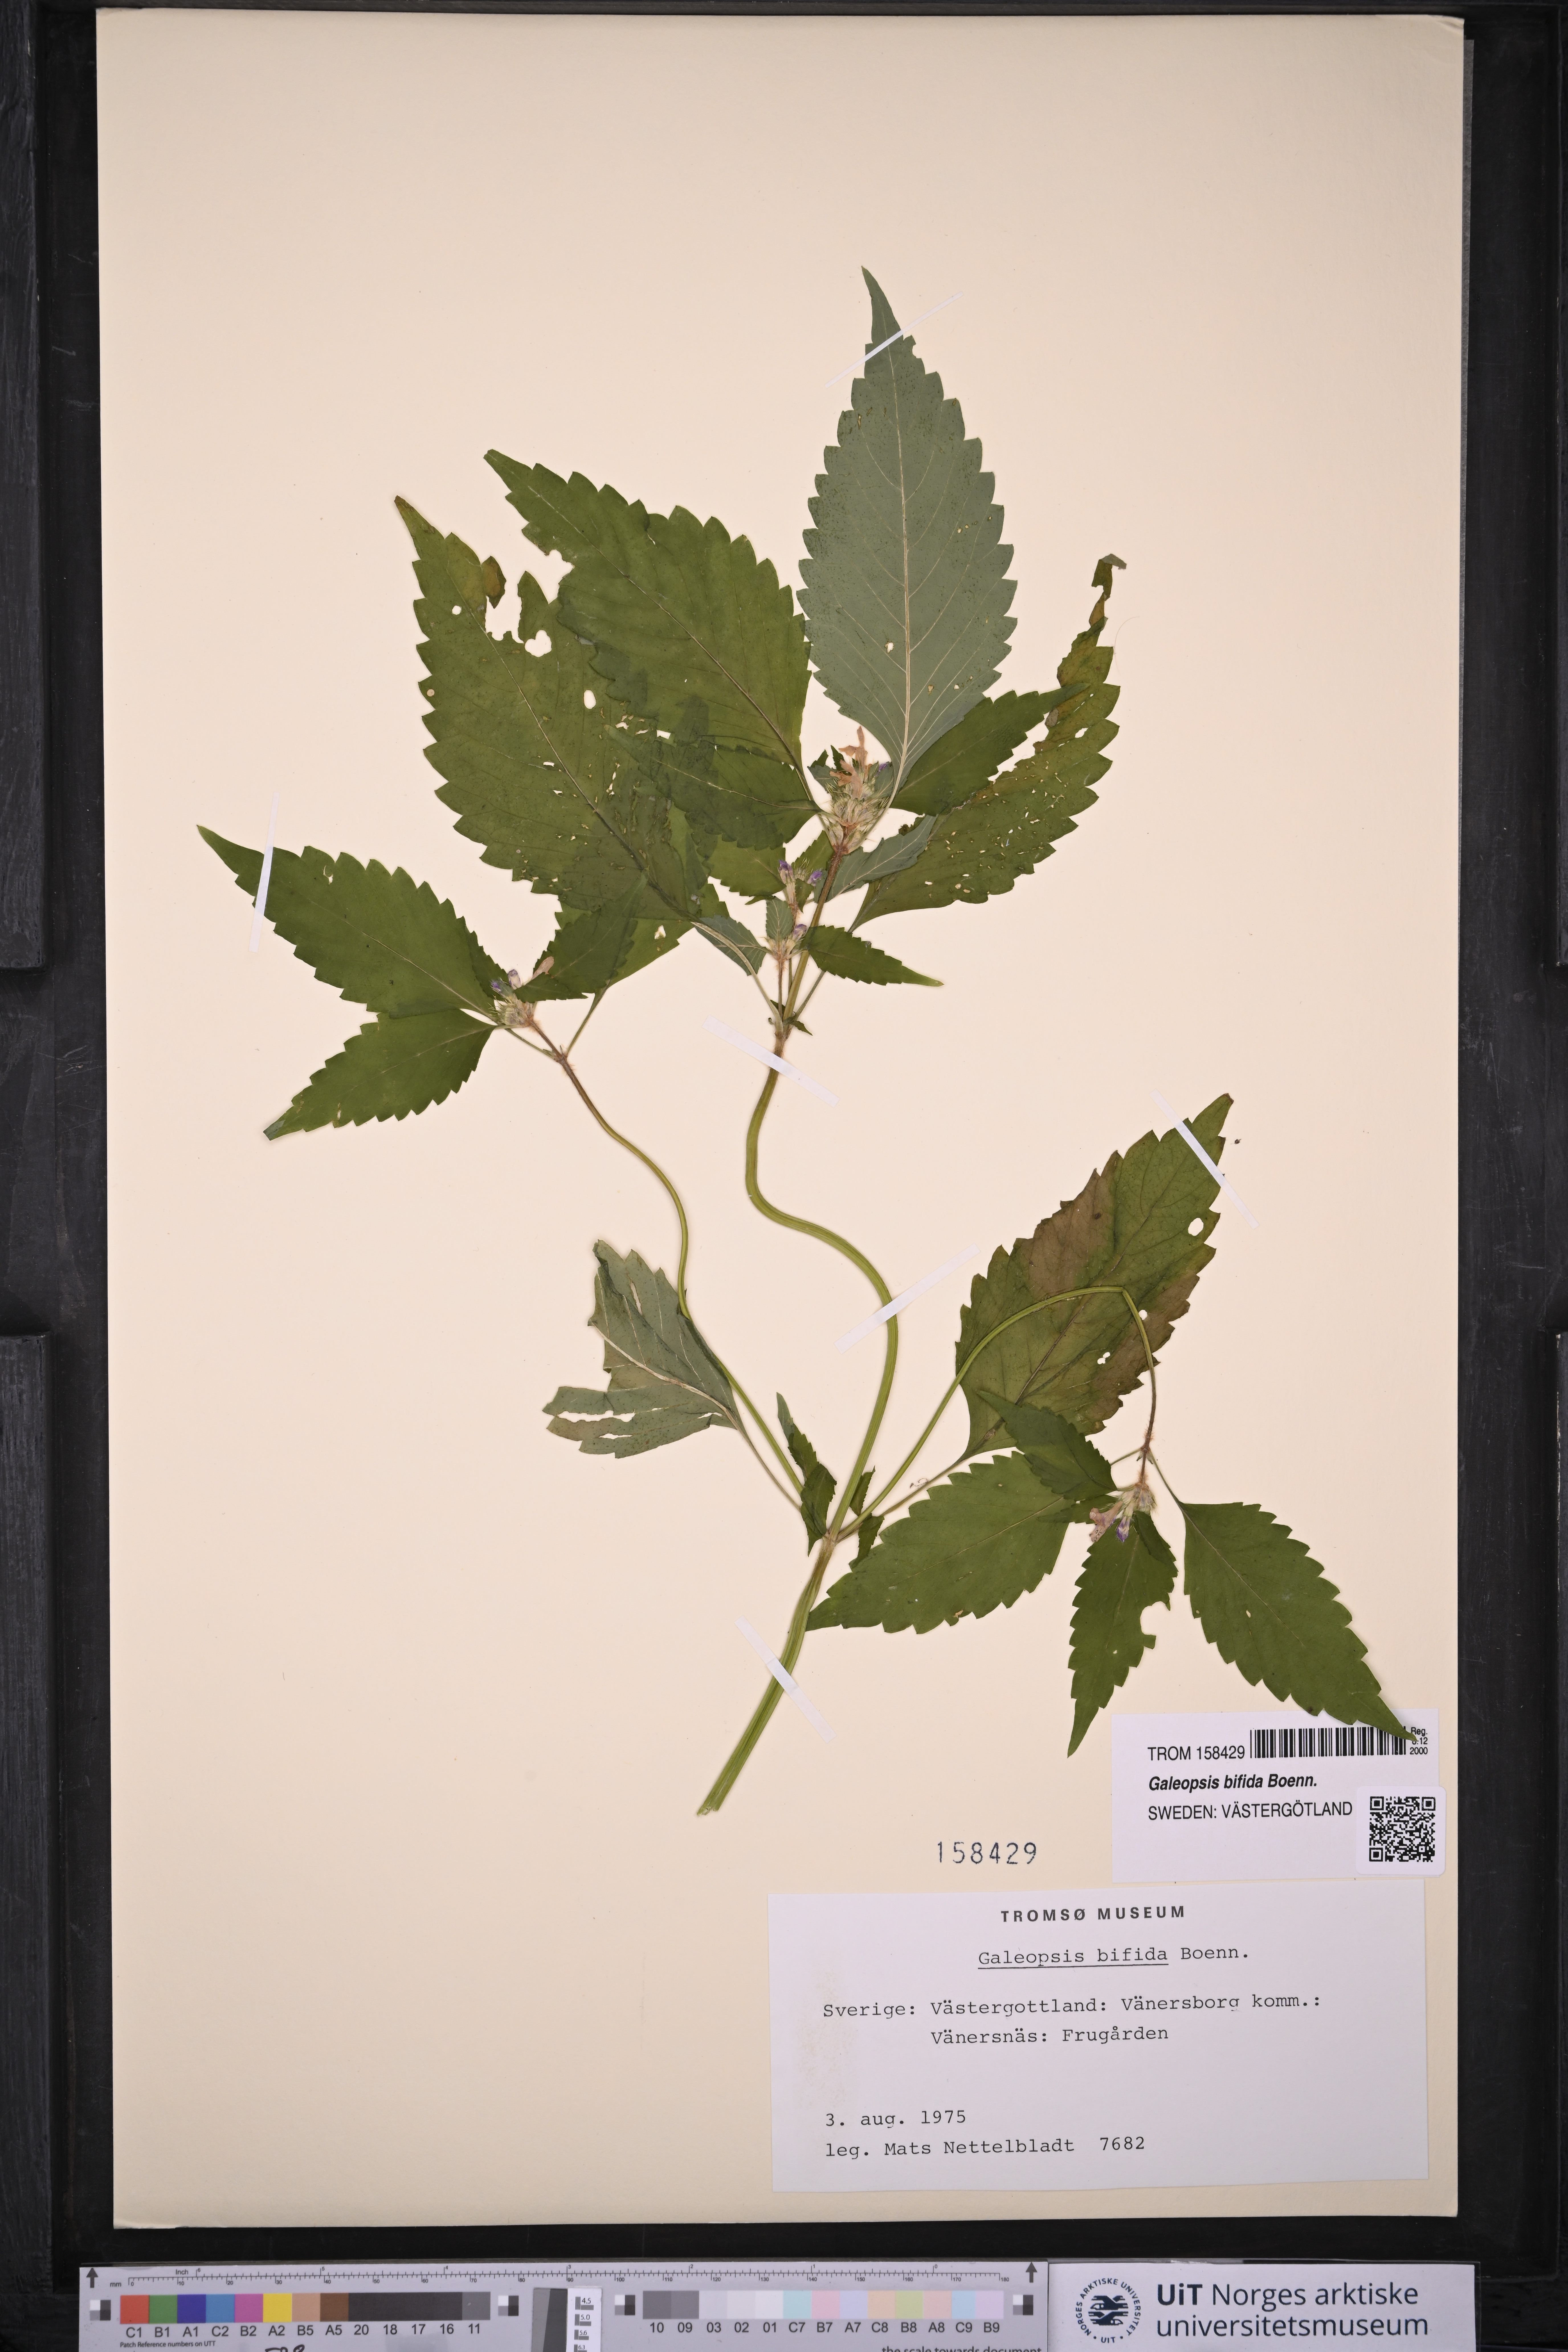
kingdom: Plantae
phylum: Tracheophyta
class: Magnoliopsida
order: Lamiales
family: Lamiaceae
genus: Galeopsis
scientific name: Galeopsis bifida
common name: Bifid hemp-nettle
